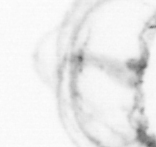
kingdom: Animalia
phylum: Cnidaria
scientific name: Cnidaria
